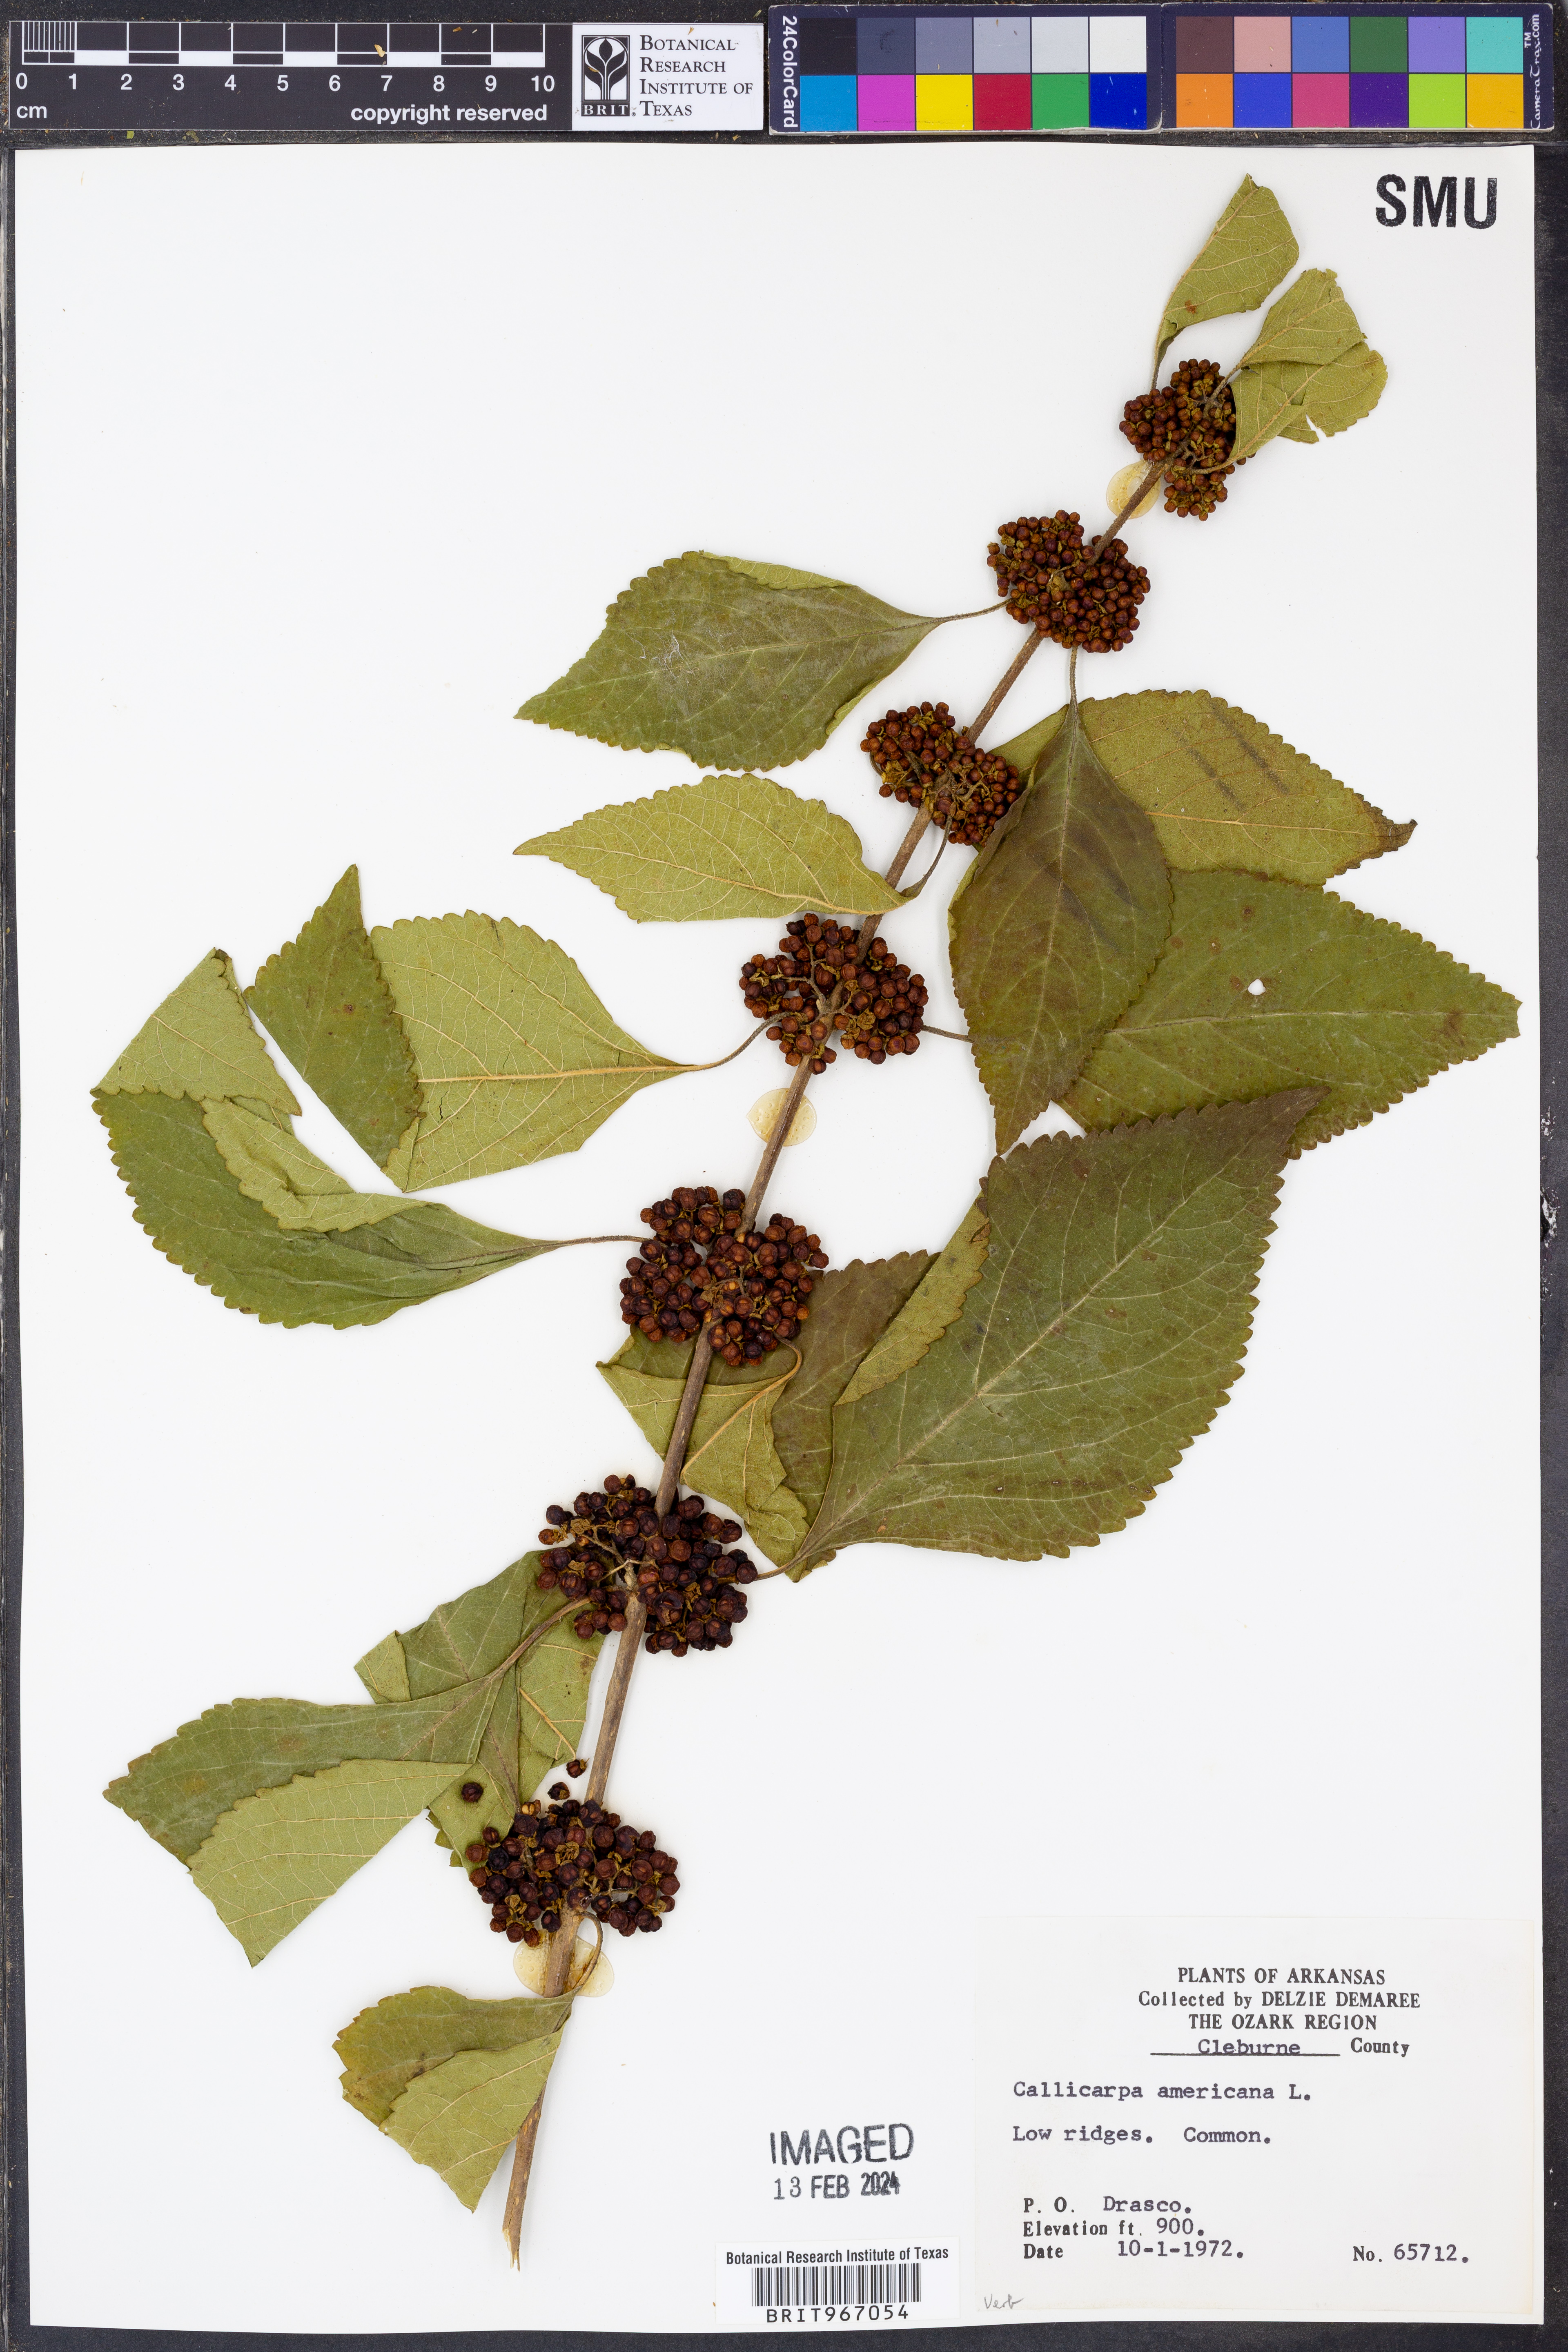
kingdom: Plantae
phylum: Tracheophyta
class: Magnoliopsida
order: Lamiales
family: Lamiaceae
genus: Callicarpa
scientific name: Callicarpa americana
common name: American beautyberry
